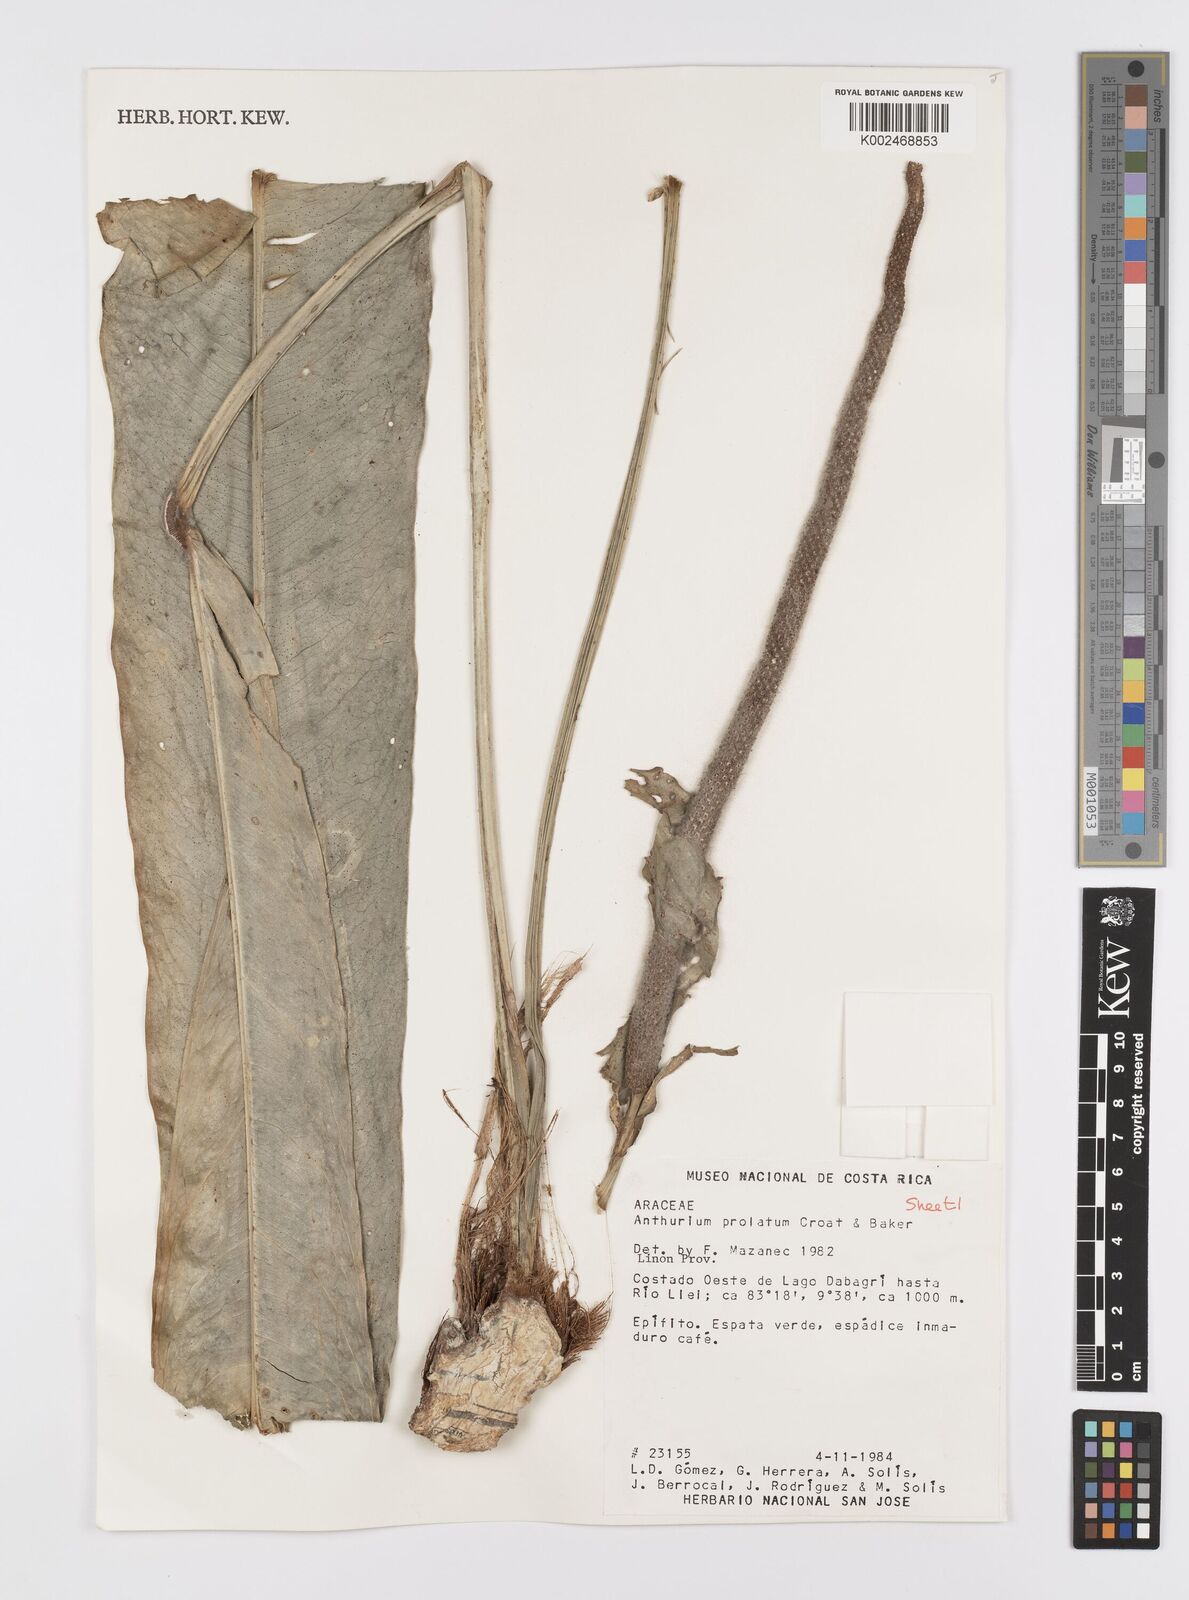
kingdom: Plantae
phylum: Tracheophyta
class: Liliopsida
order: Alismatales
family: Araceae
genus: Anthurium
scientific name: Anthurium prolatum
